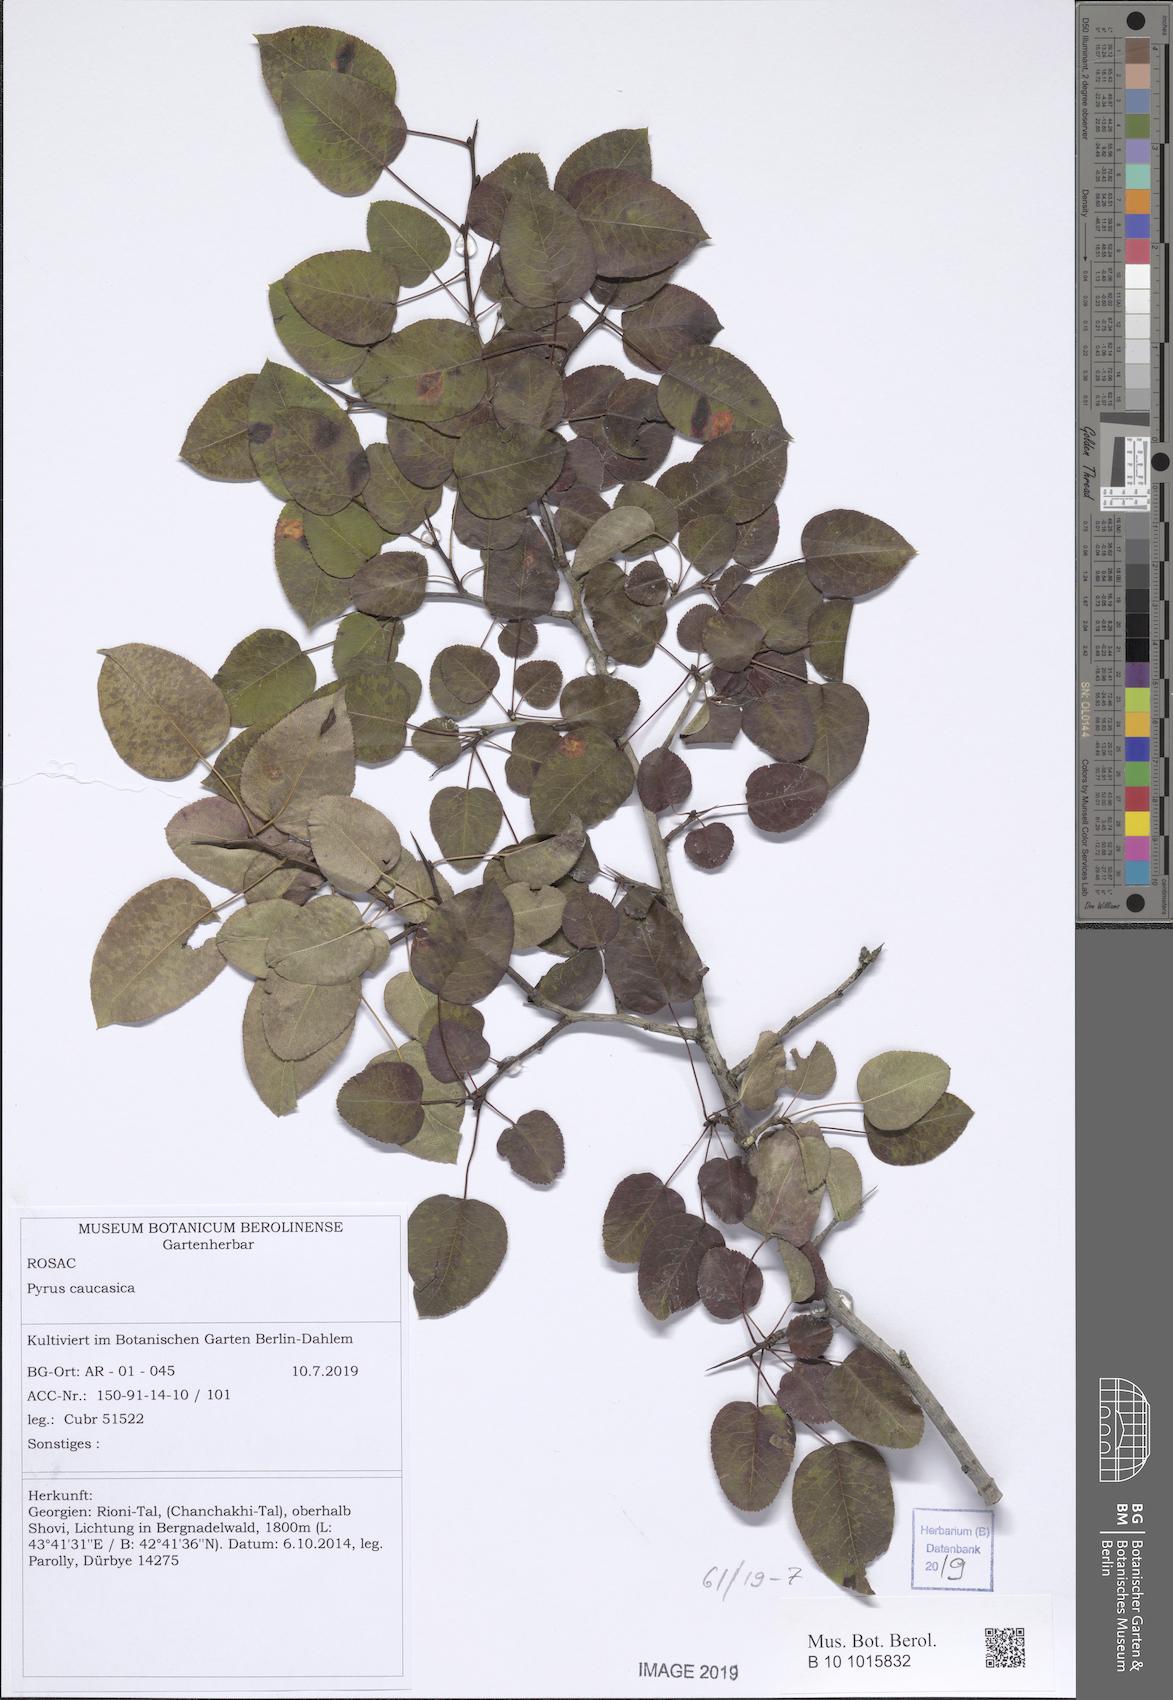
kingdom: Plantae
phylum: Tracheophyta
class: Magnoliopsida
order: Rosales
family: Rosaceae
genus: Pyrus
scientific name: Pyrus communis
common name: Pear
